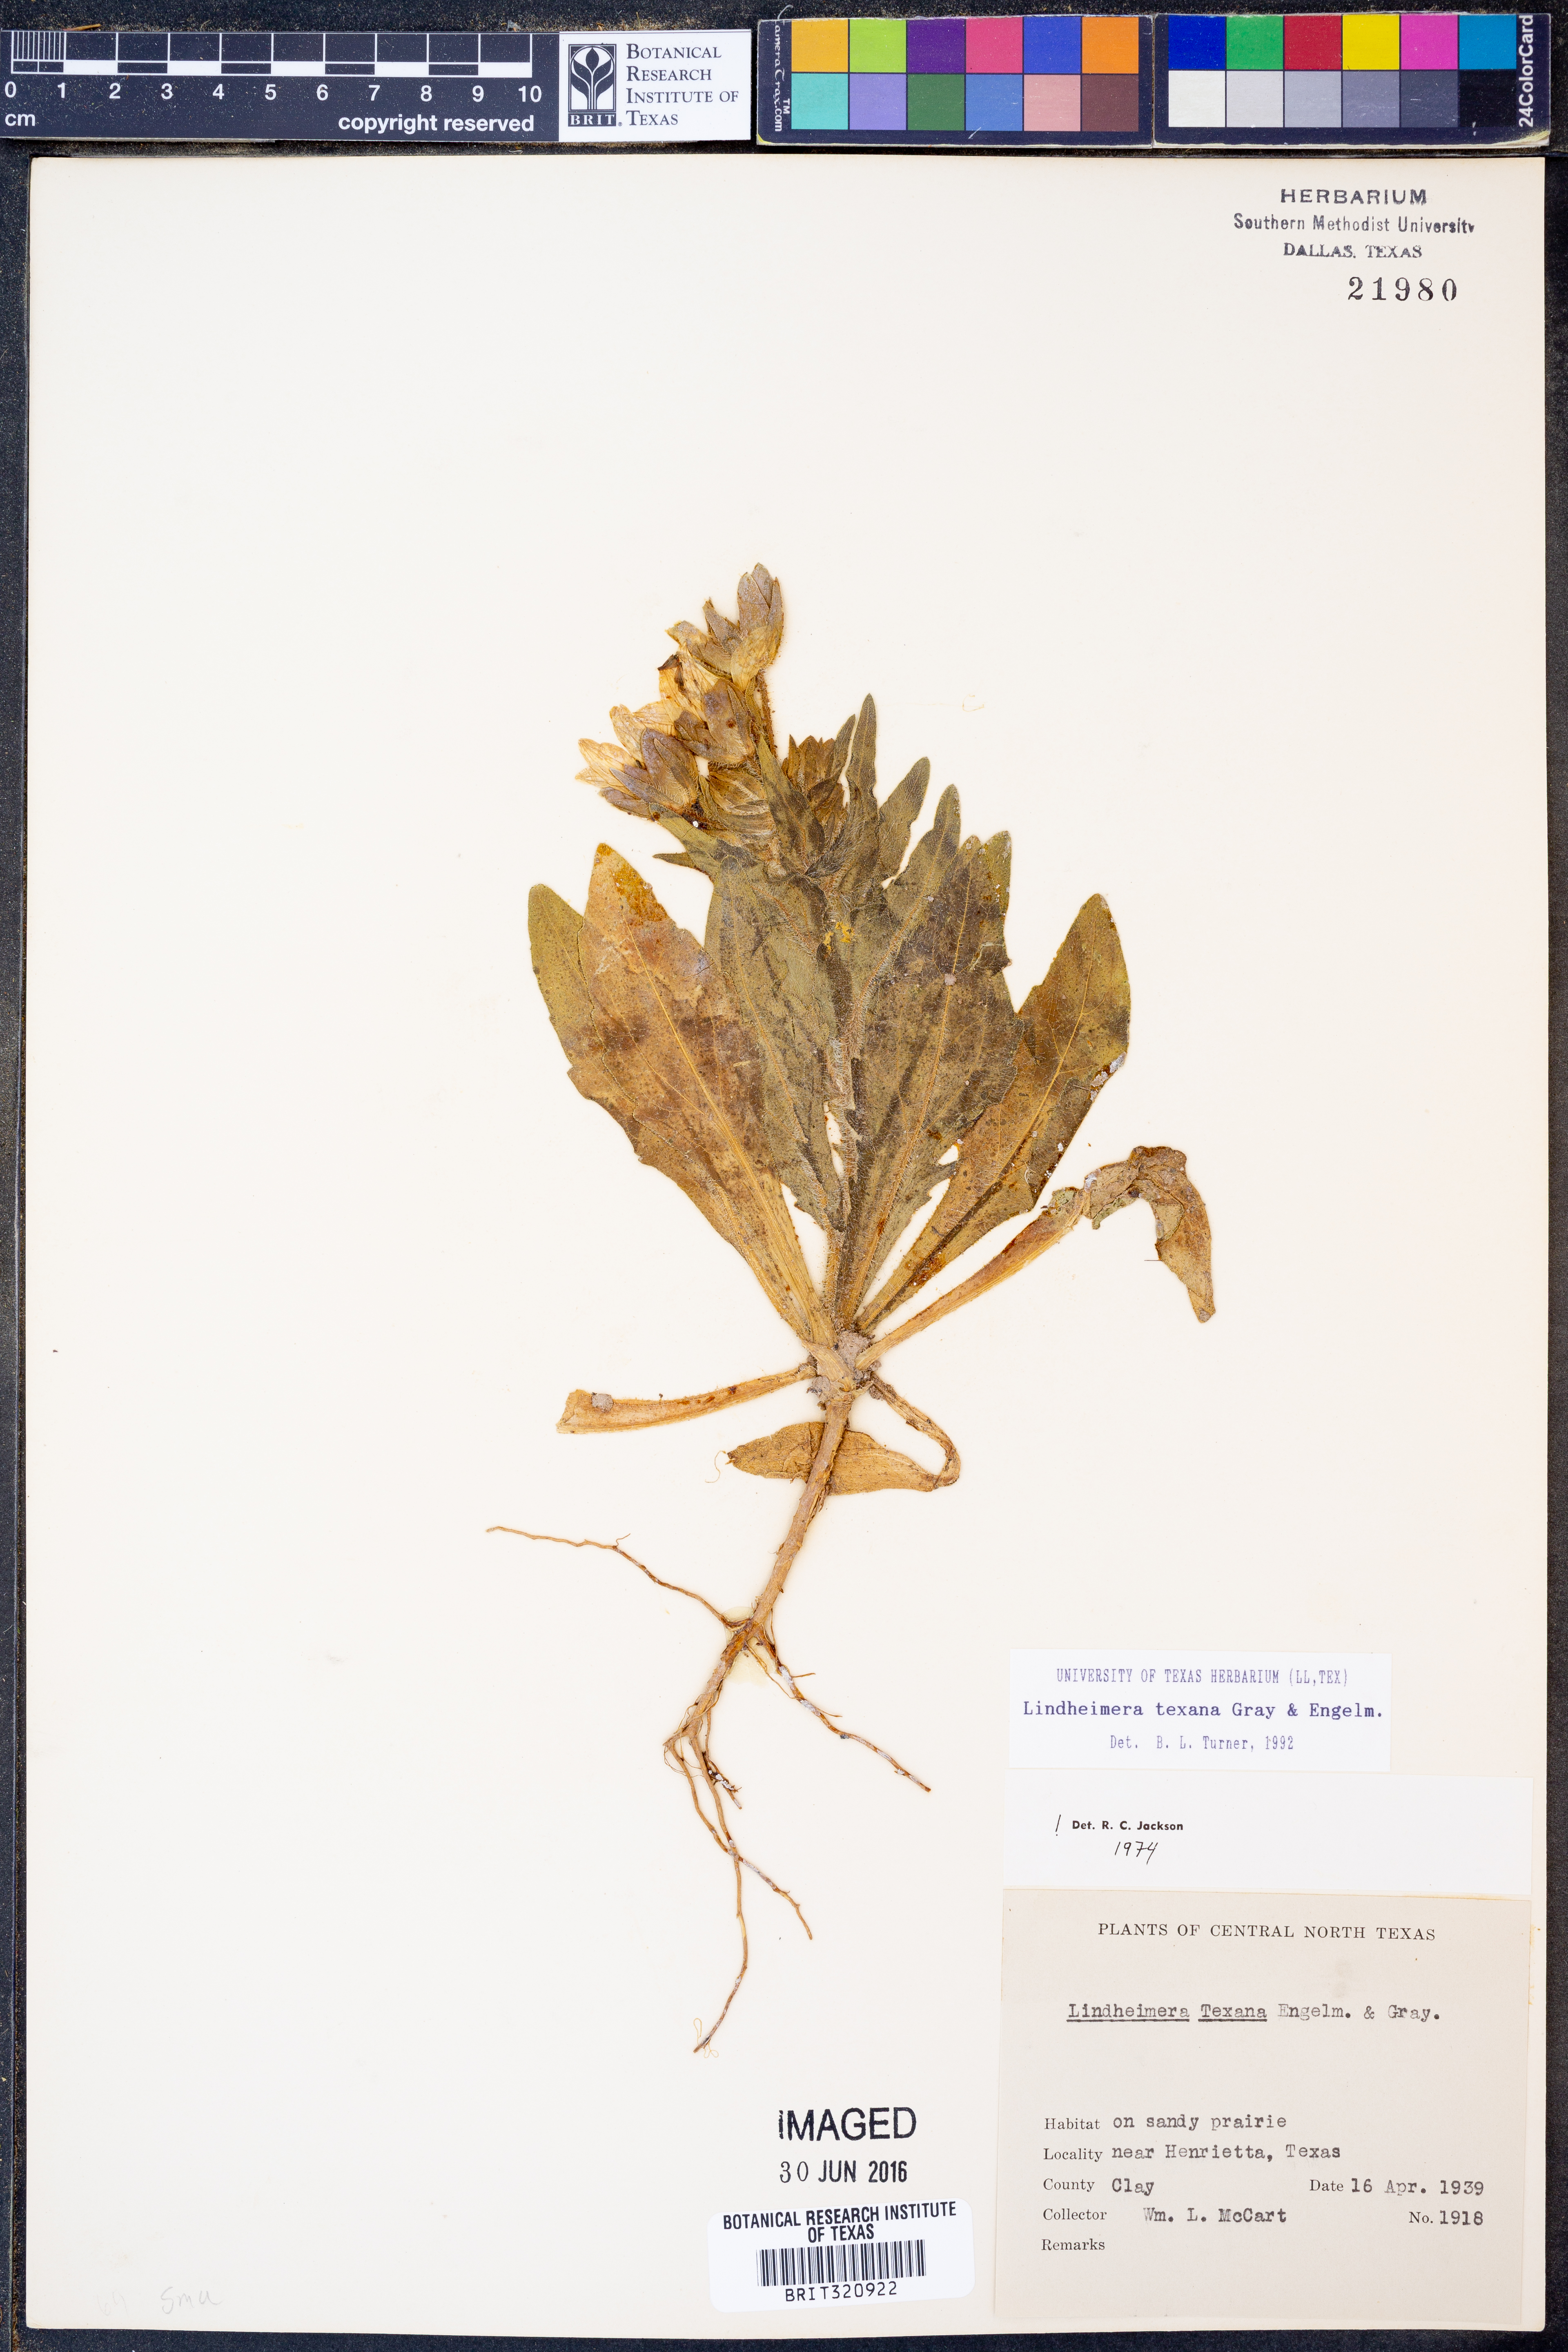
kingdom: Plantae
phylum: Tracheophyta
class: Magnoliopsida
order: Asterales
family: Asteraceae
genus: Lindheimera
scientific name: Lindheimera texana
